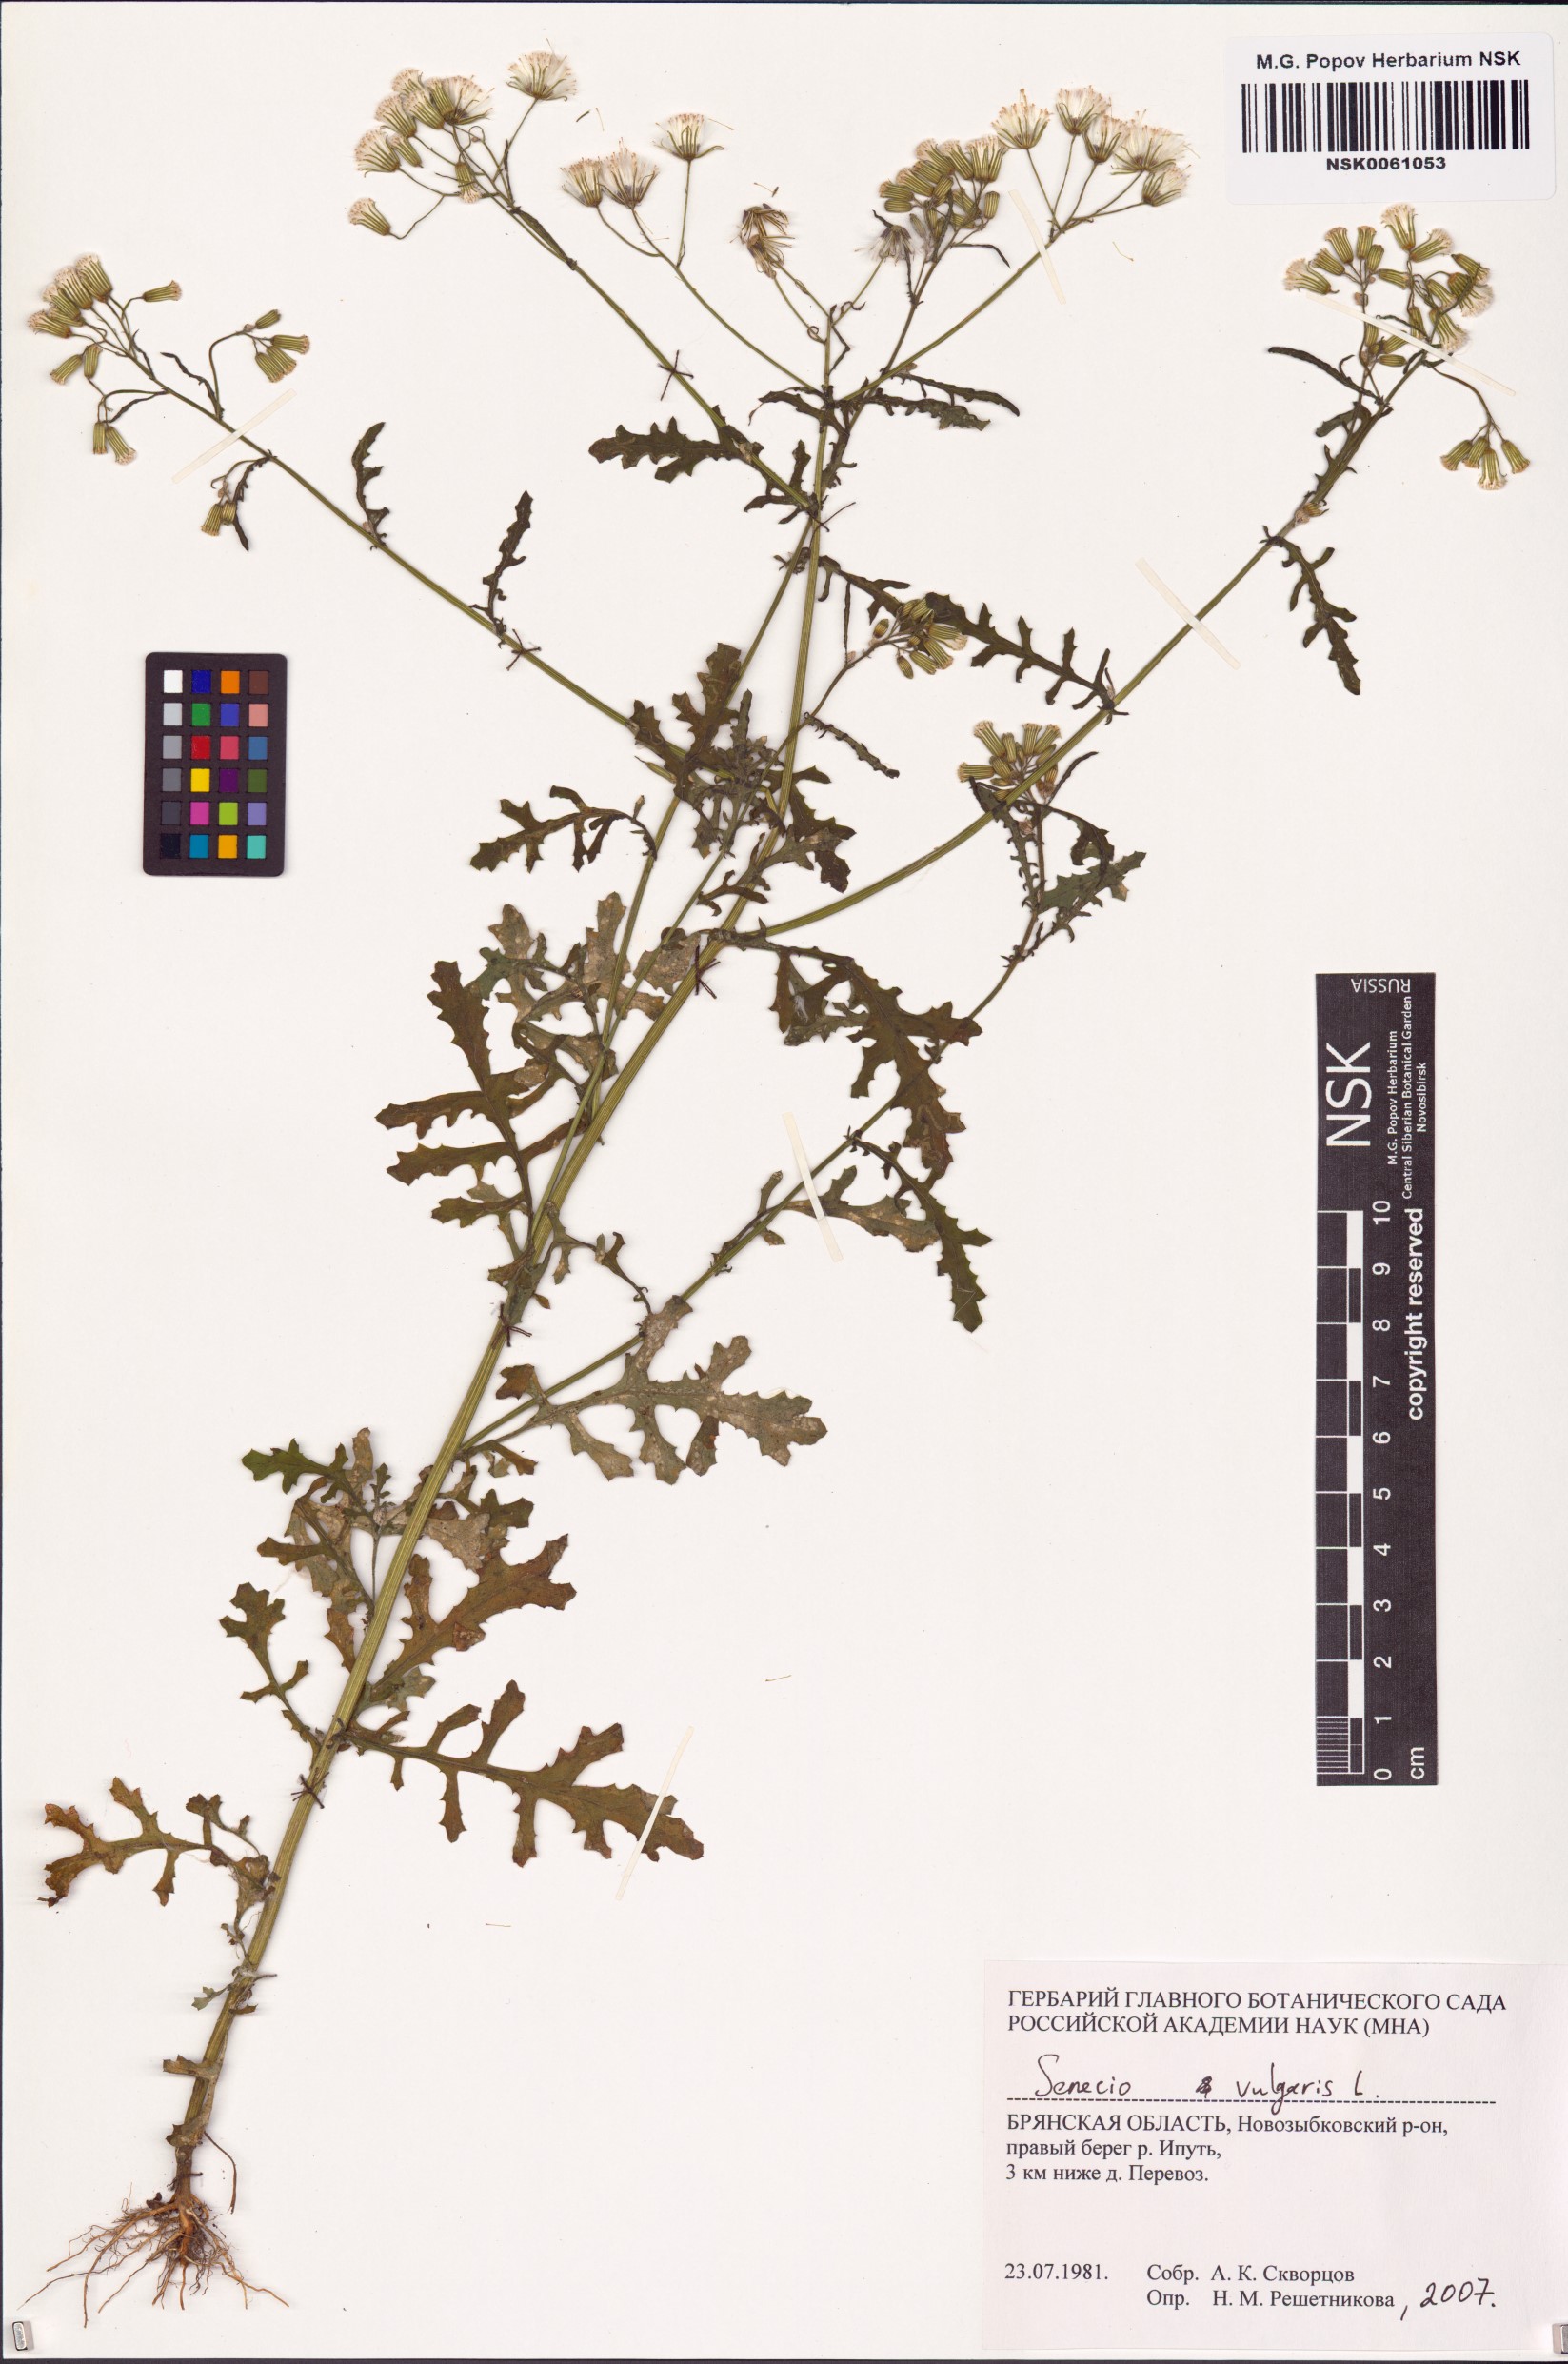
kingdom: Plantae
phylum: Tracheophyta
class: Magnoliopsida
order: Asterales
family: Asteraceae
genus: Senecio
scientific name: Senecio vulgaris
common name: Old-man-in-the-spring
